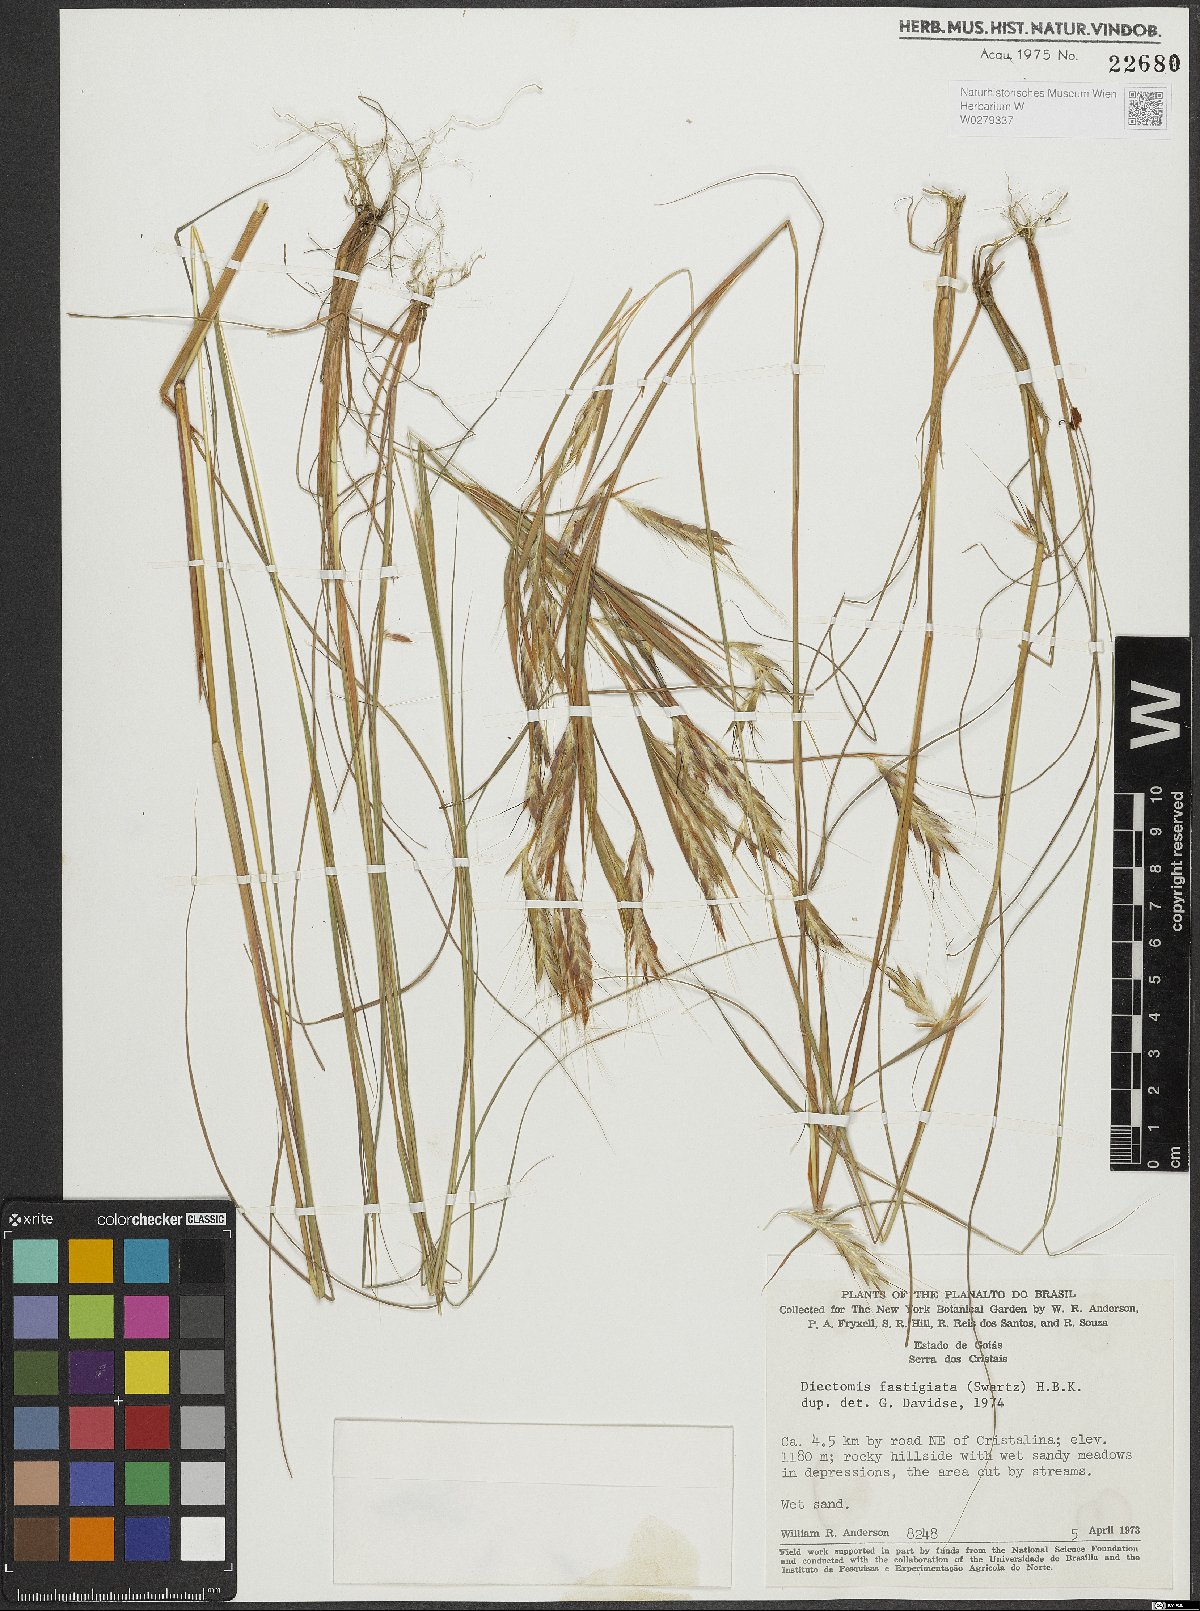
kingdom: Plantae
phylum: Tracheophyta
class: Liliopsida
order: Poales
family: Poaceae
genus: Diectomis
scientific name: Diectomis fastigiata
